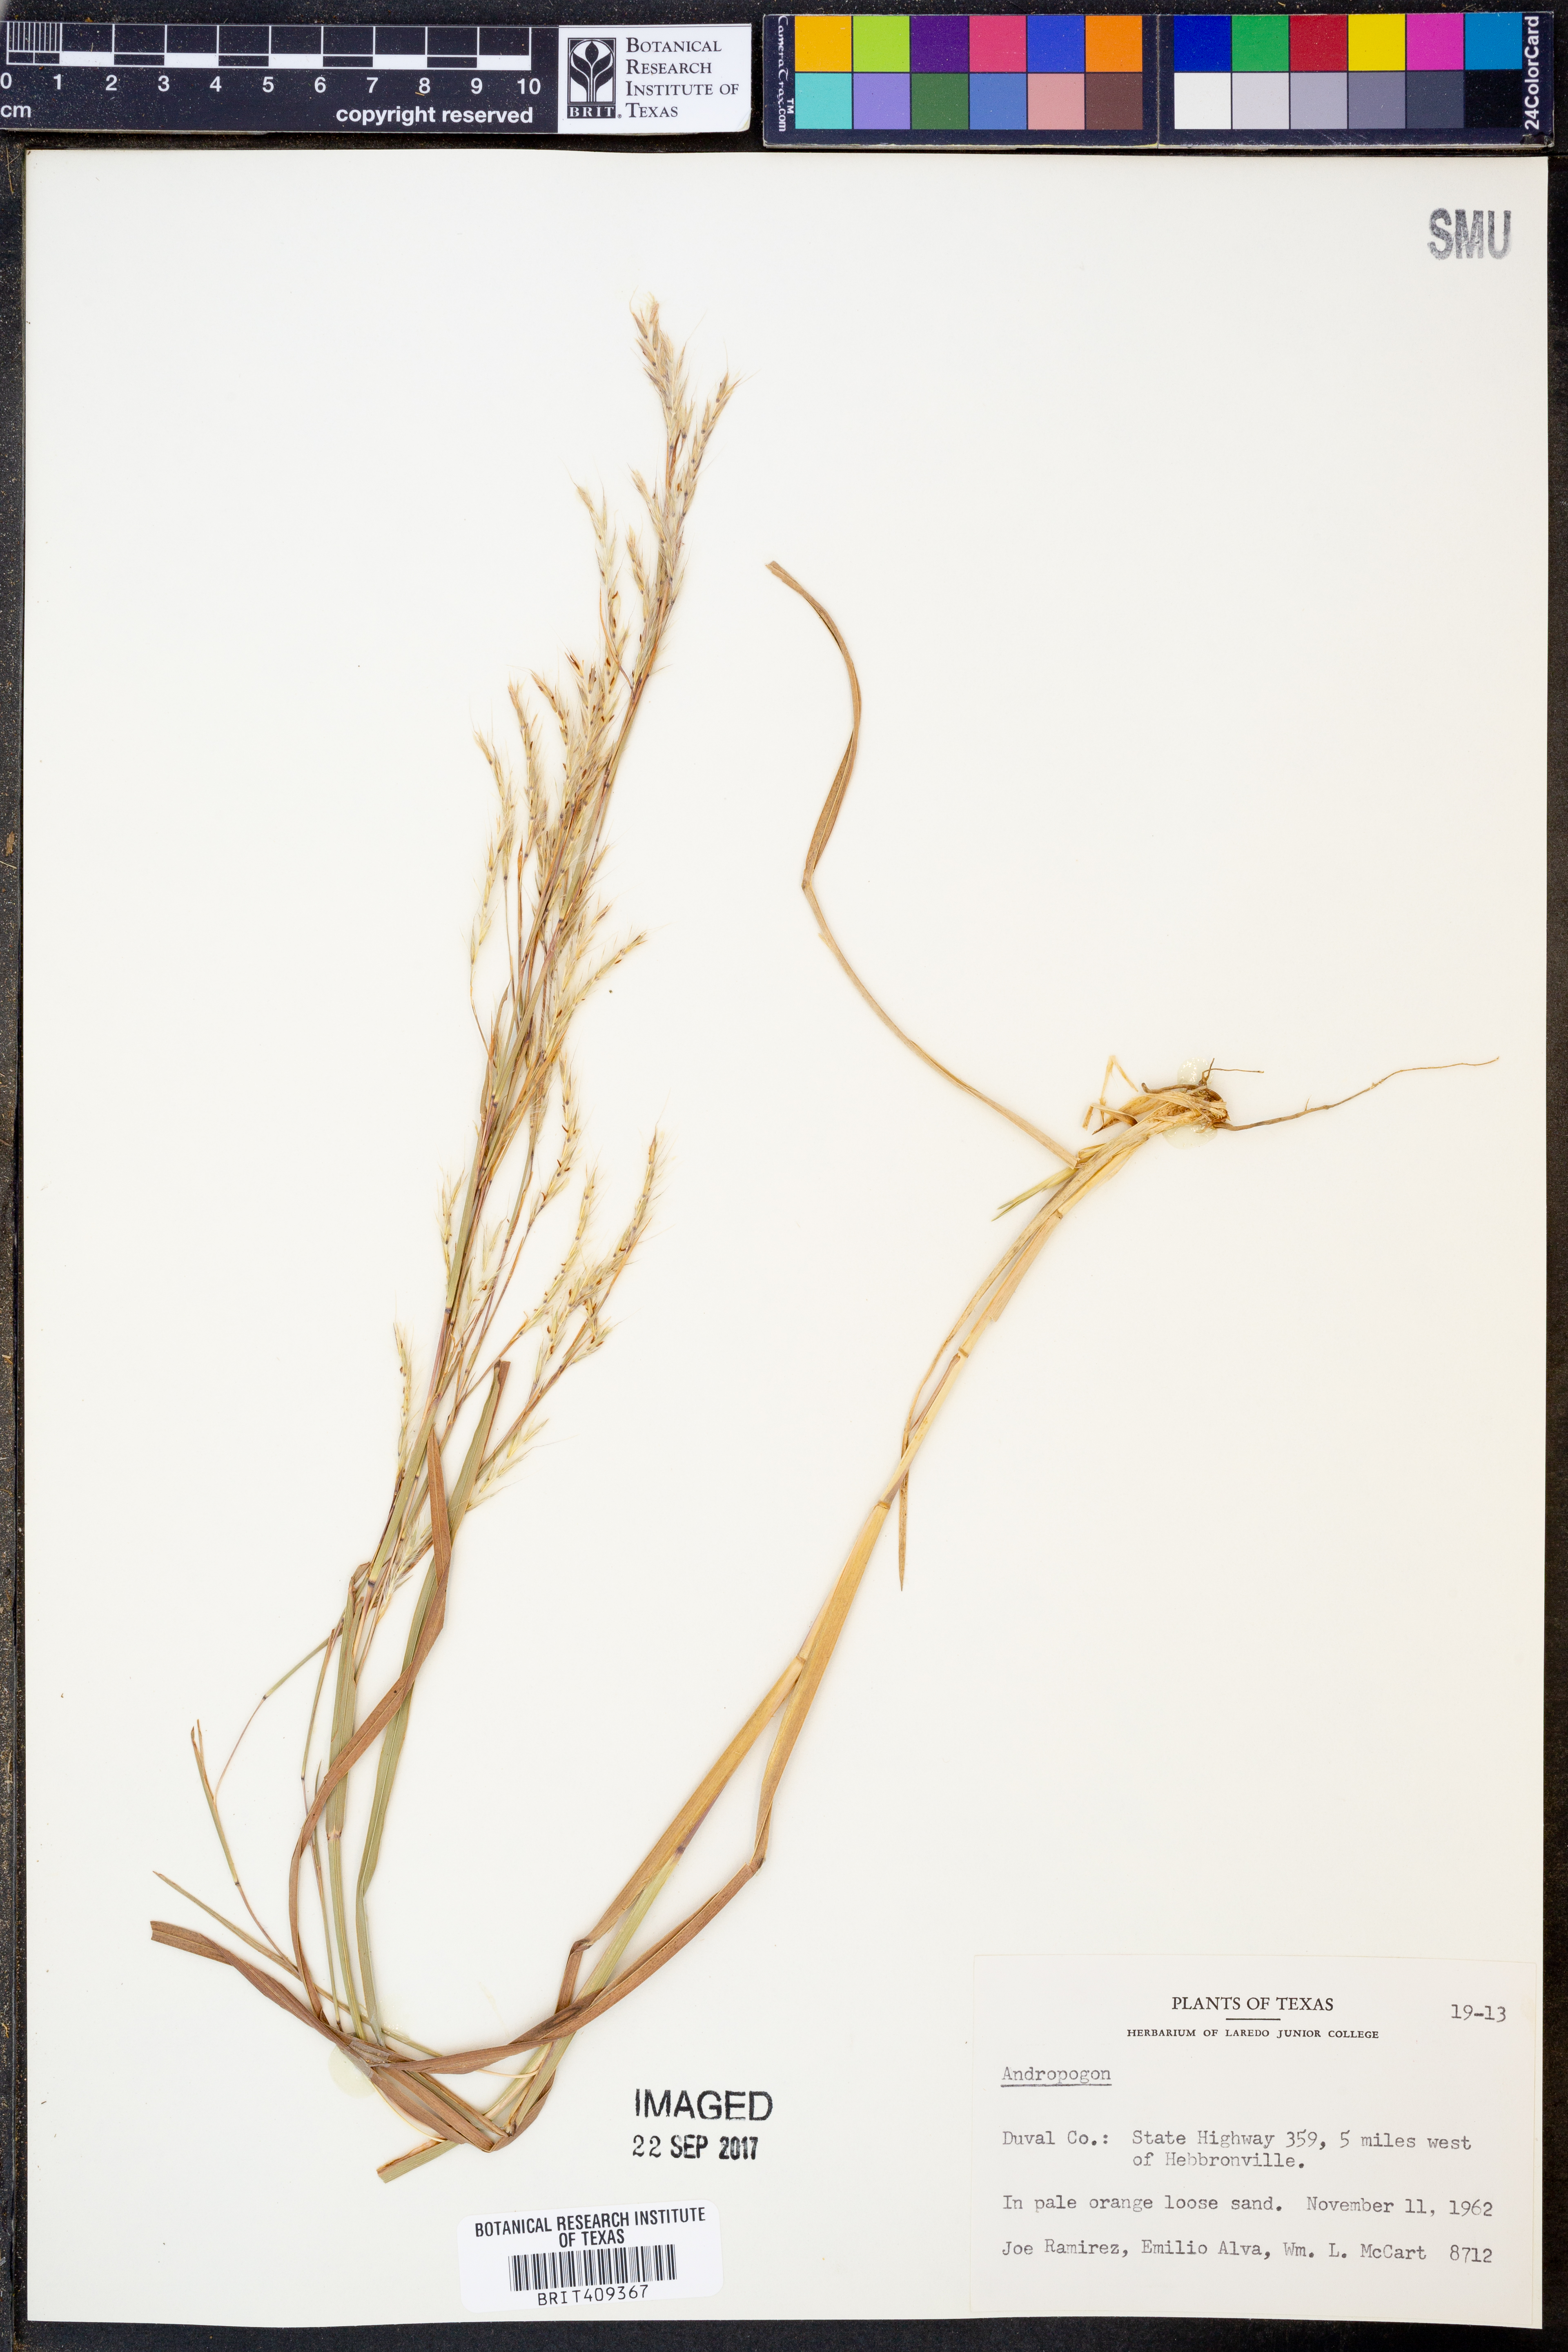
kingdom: Plantae
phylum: Tracheophyta
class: Liliopsida
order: Poales
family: Poaceae
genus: Andropogon
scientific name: Andropogon
